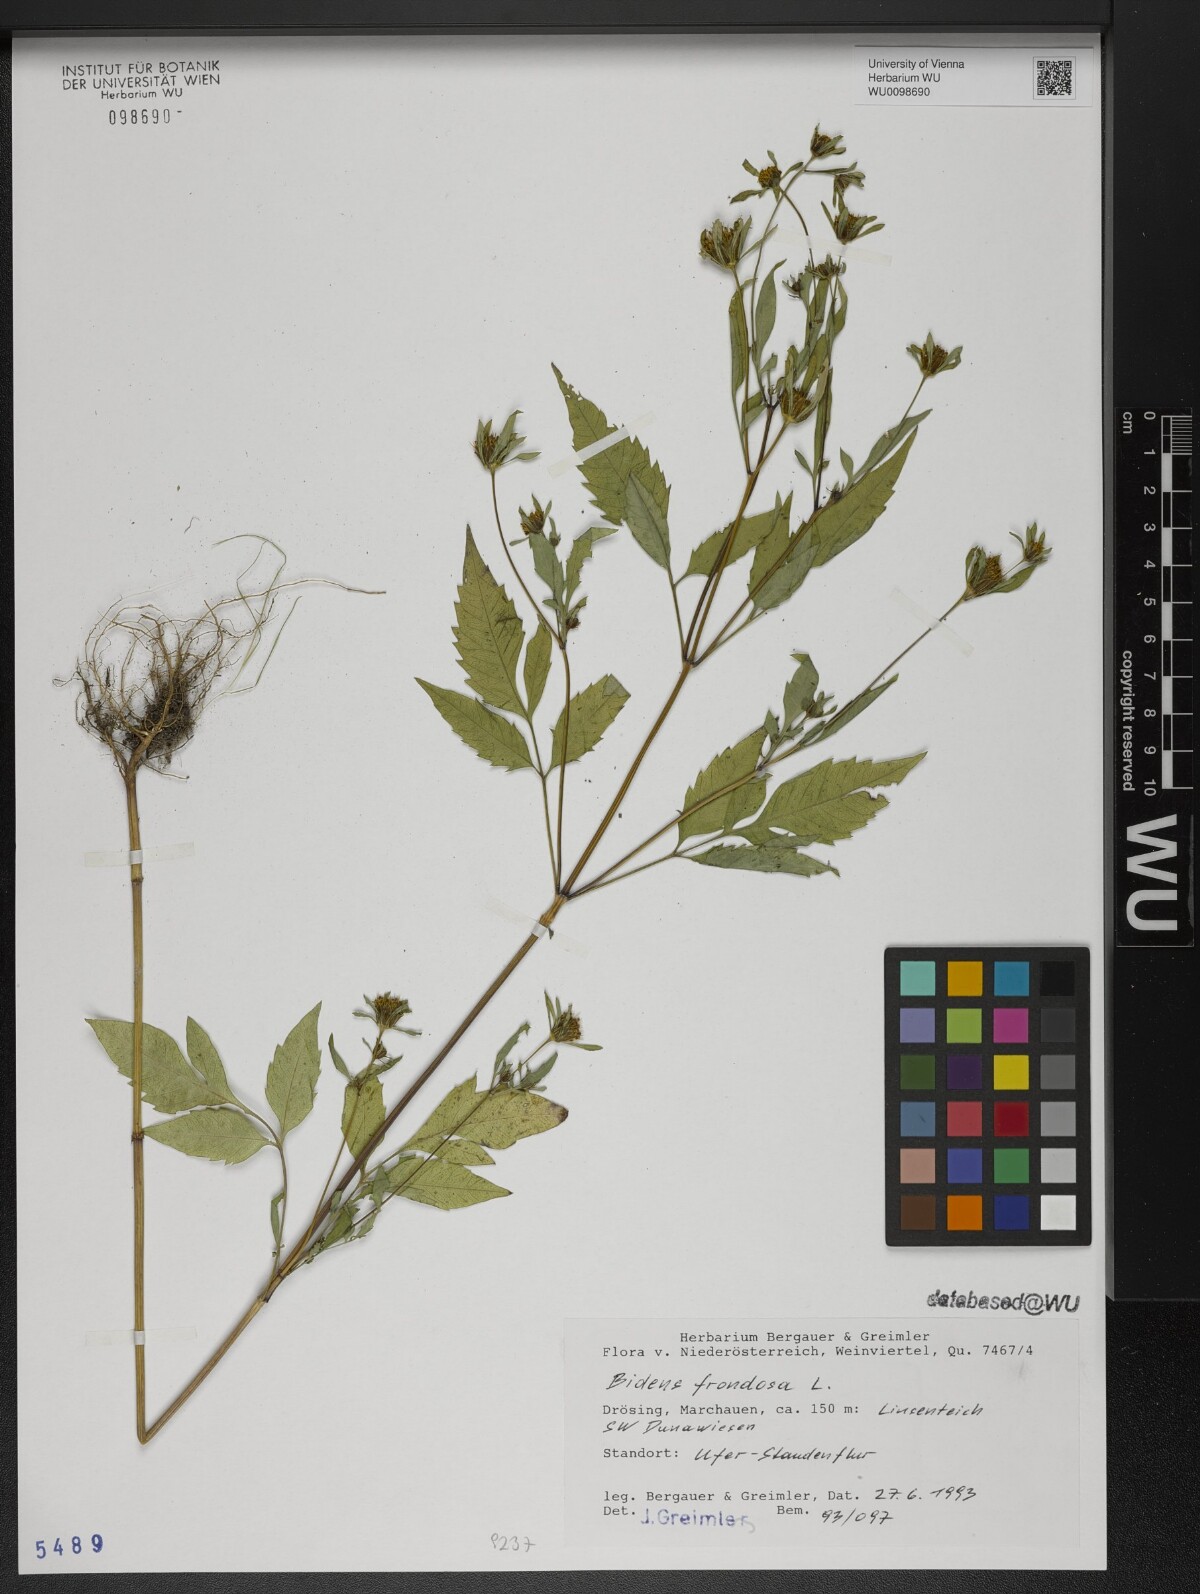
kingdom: Plantae
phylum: Tracheophyta
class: Magnoliopsida
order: Asterales
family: Asteraceae
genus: Bidens
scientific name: Bidens frondosa
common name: Beggarticks
